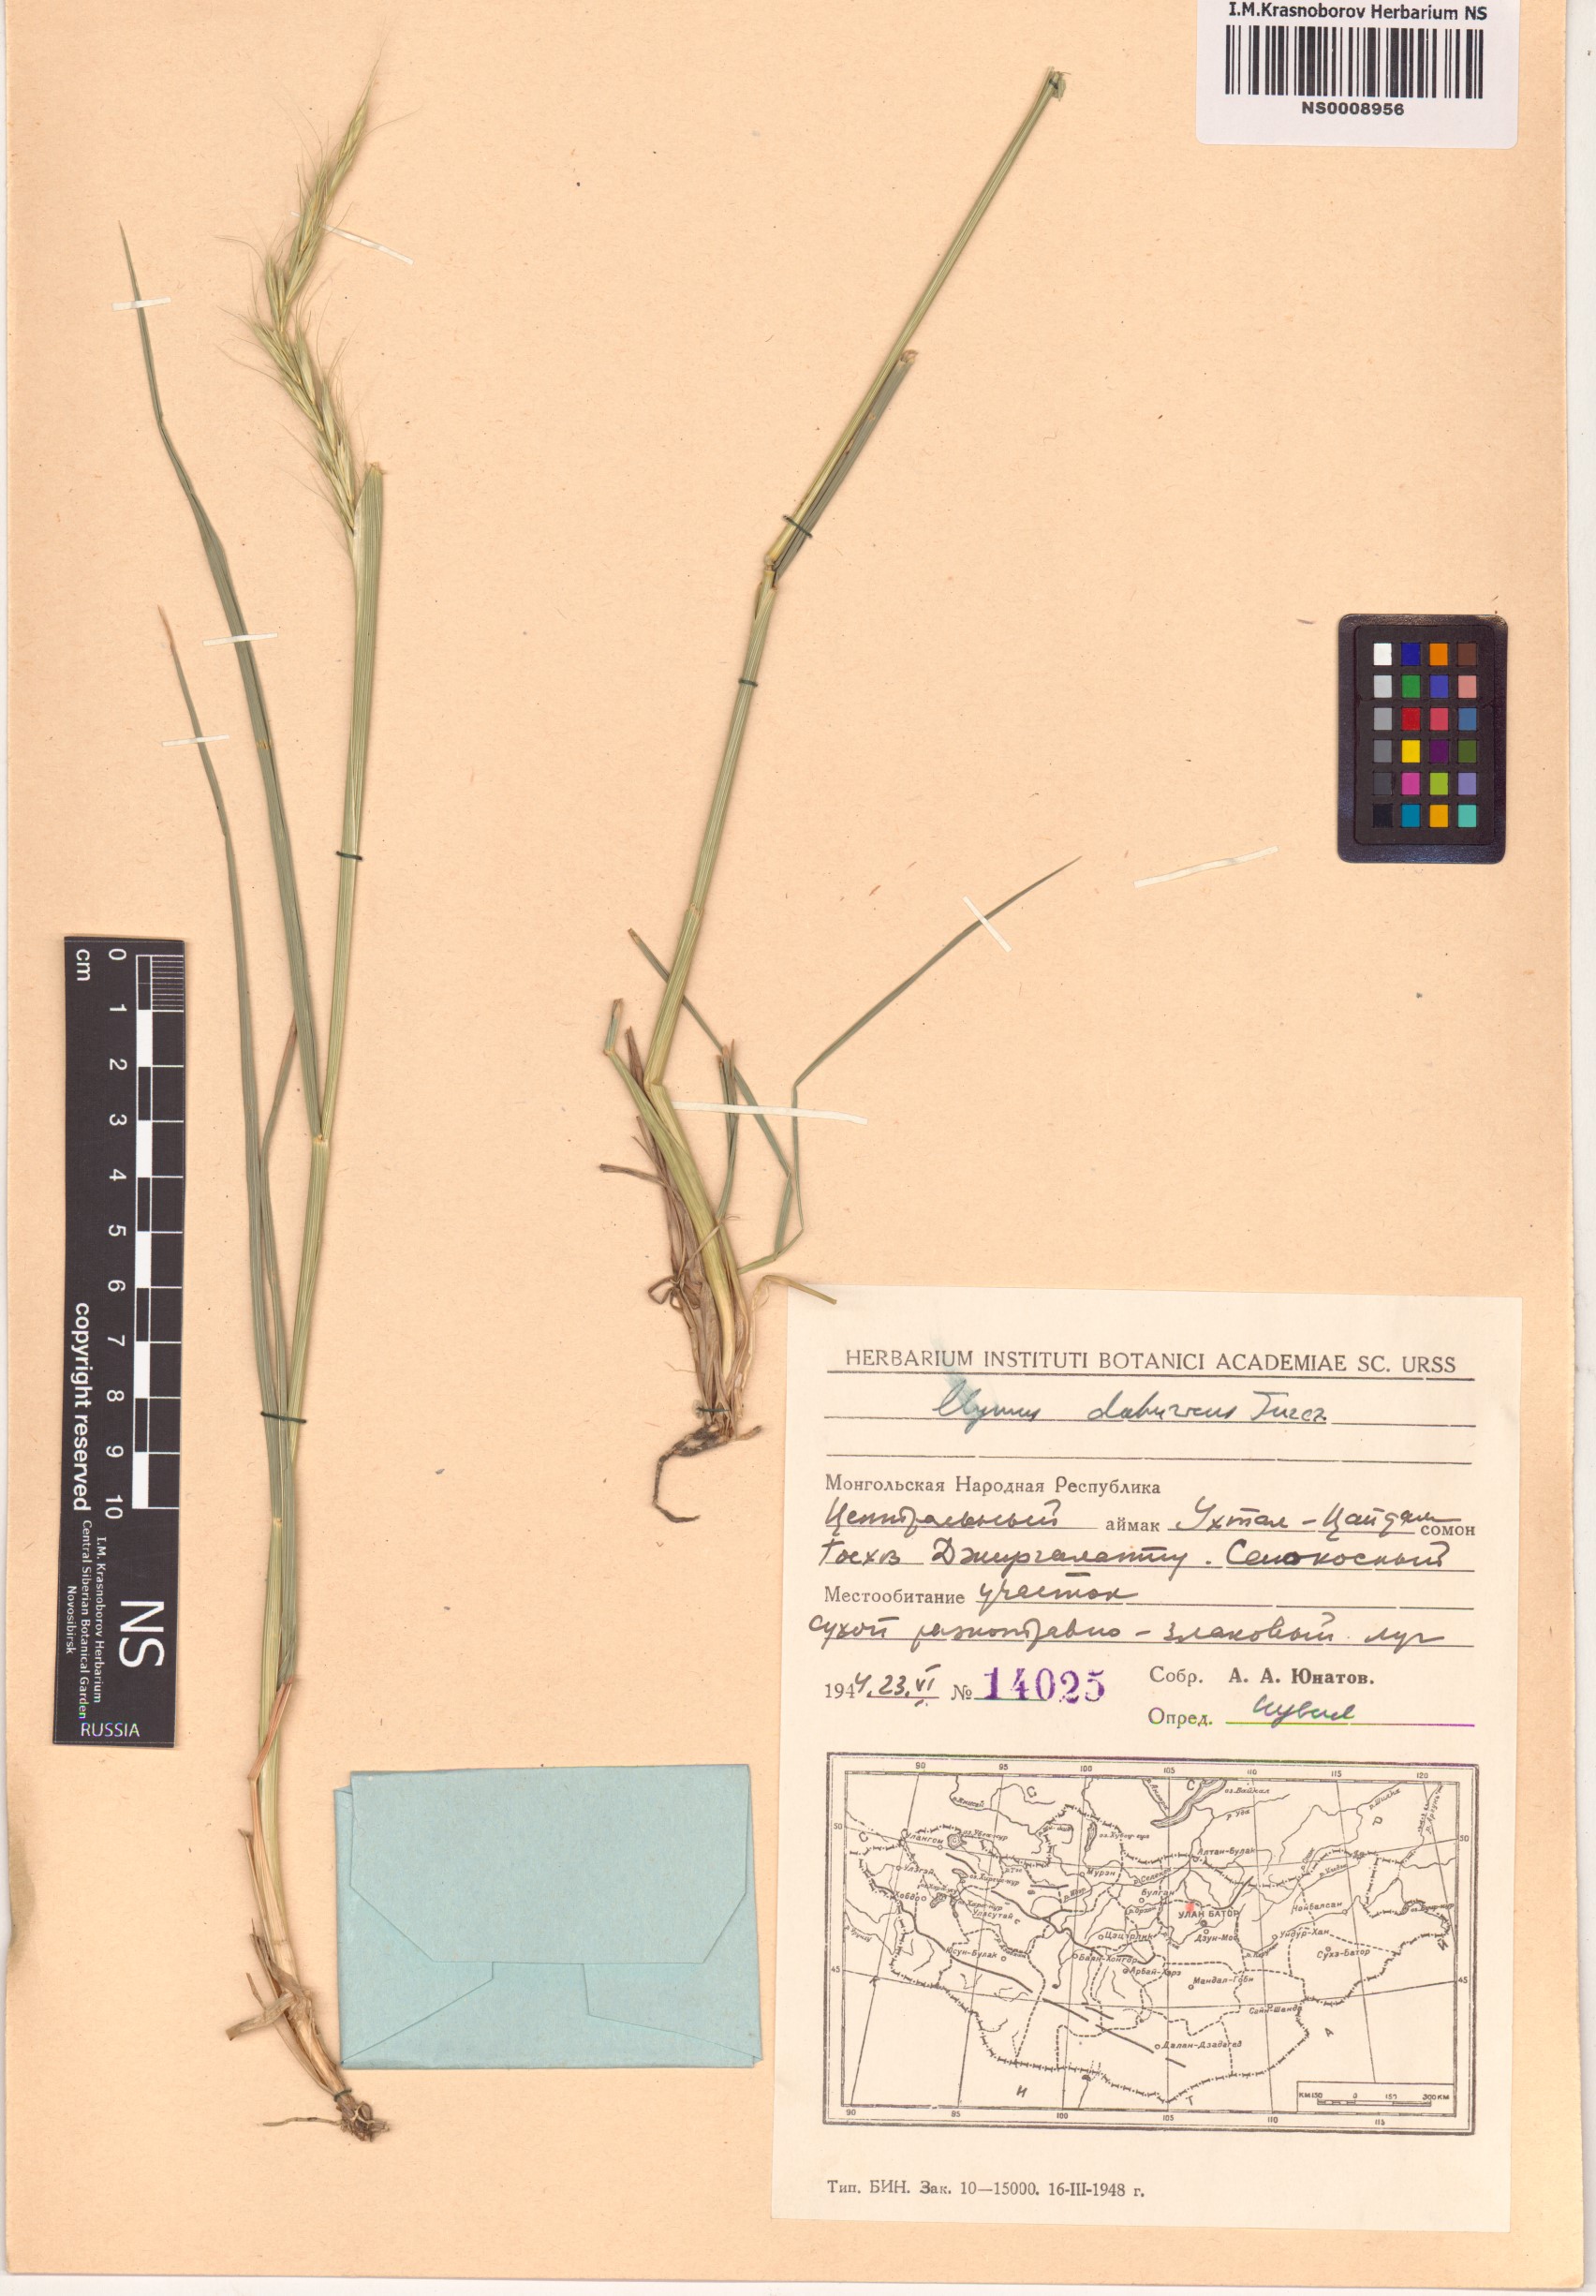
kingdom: Plantae
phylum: Tracheophyta
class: Liliopsida
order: Poales
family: Poaceae
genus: Elymus
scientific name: Elymus dahuricus
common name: Dahurian wild rye
